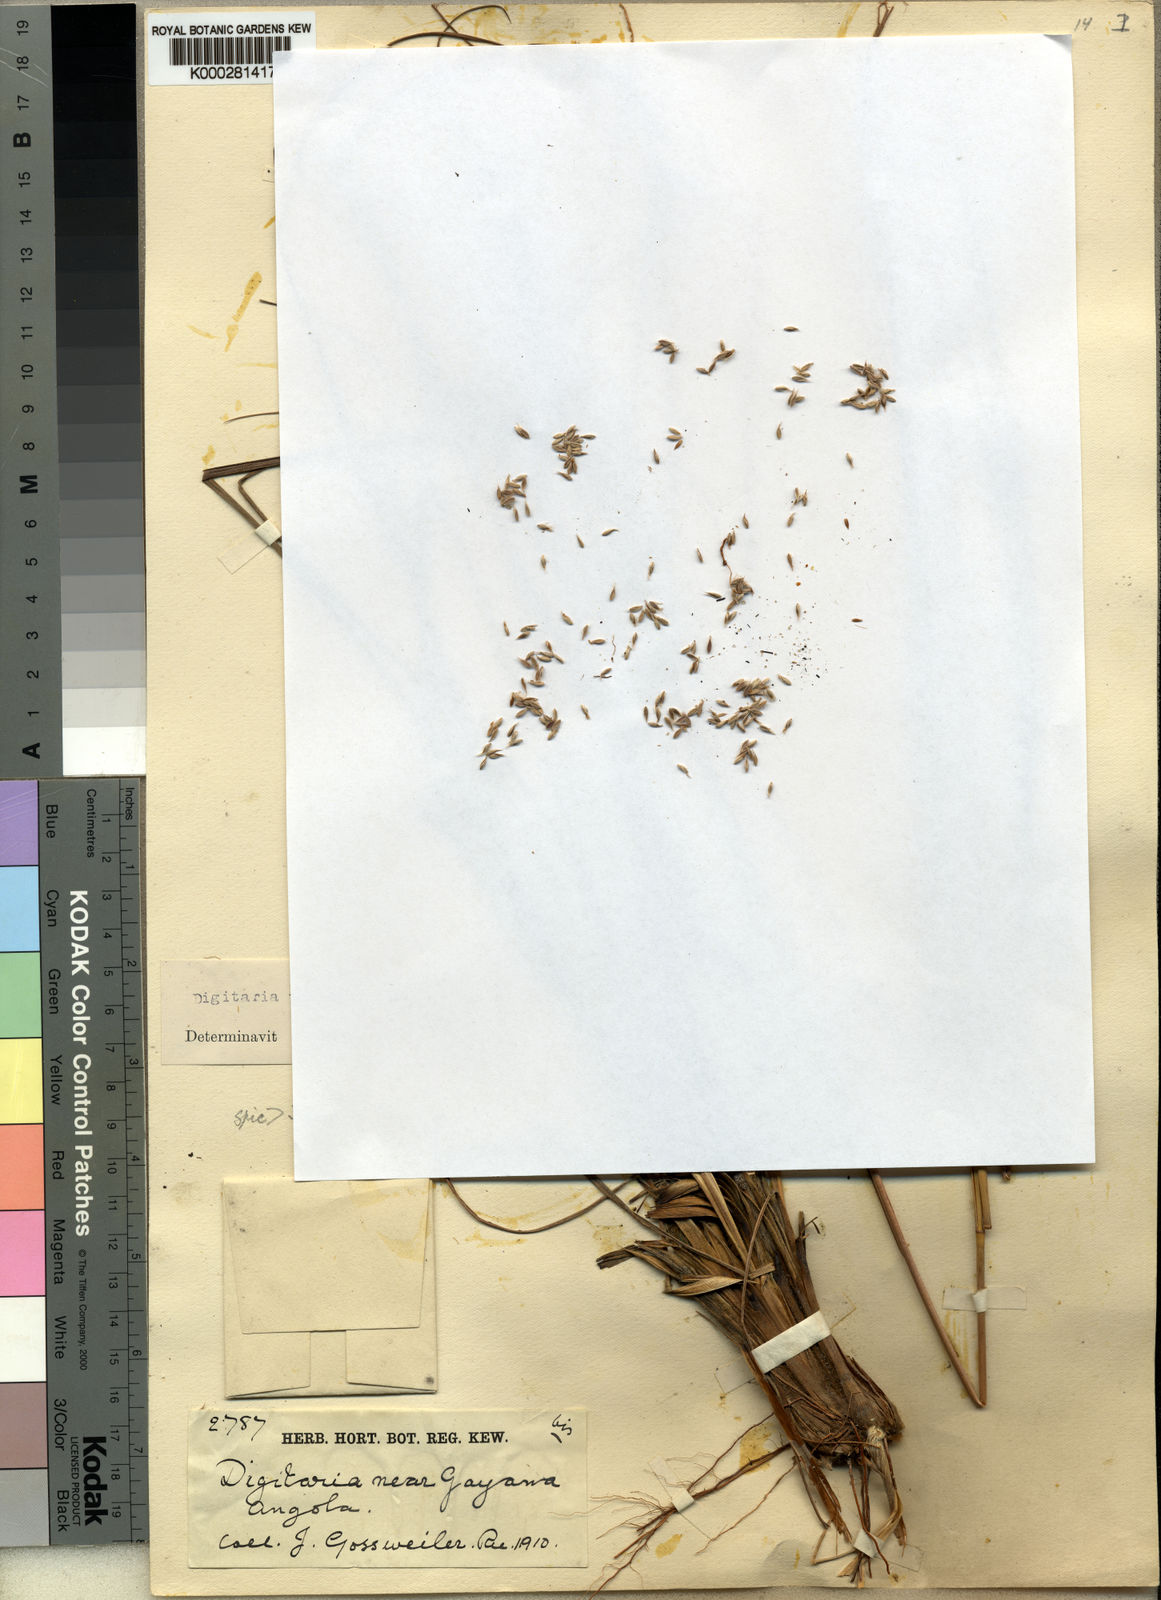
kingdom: Plantae
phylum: Tracheophyta
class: Liliopsida
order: Poales
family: Poaceae
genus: Digitaria
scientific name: Digitaria pellita
